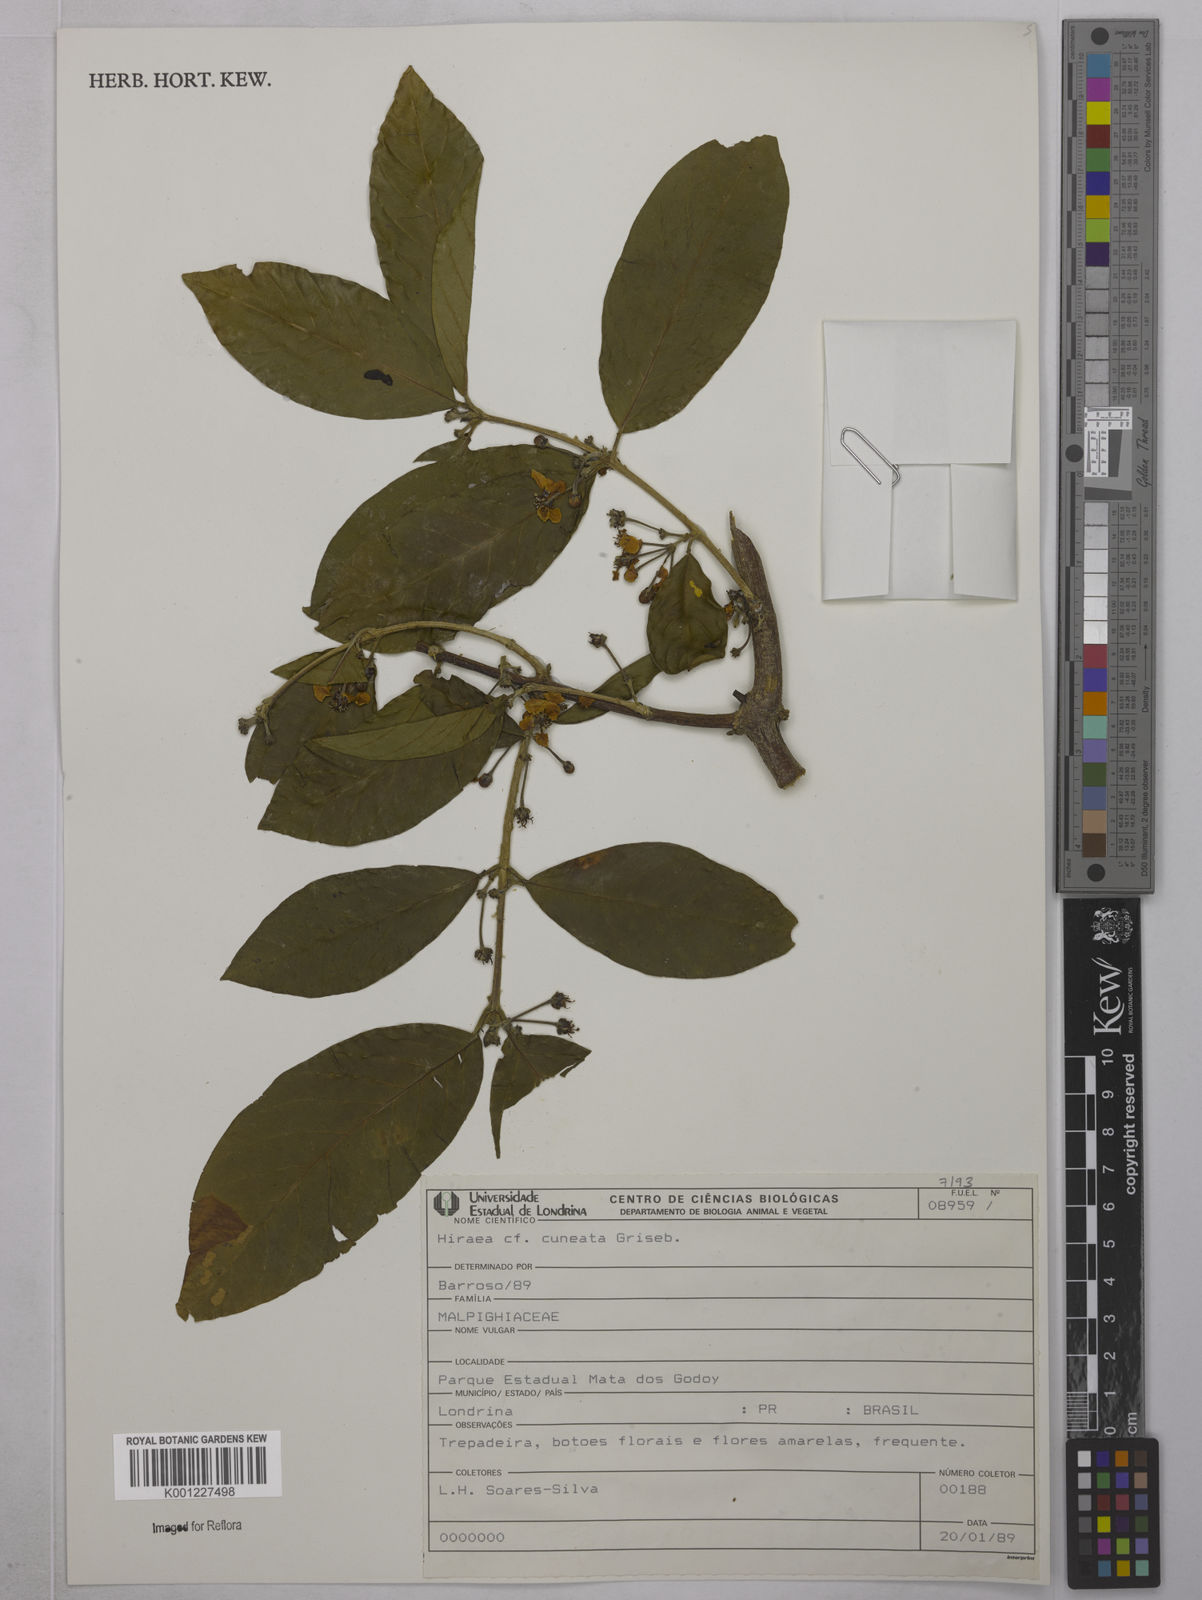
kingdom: Plantae
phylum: Tracheophyta
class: Magnoliopsida
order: Malpighiales
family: Malpighiaceae
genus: Hiraea
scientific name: Hiraea cuneata
